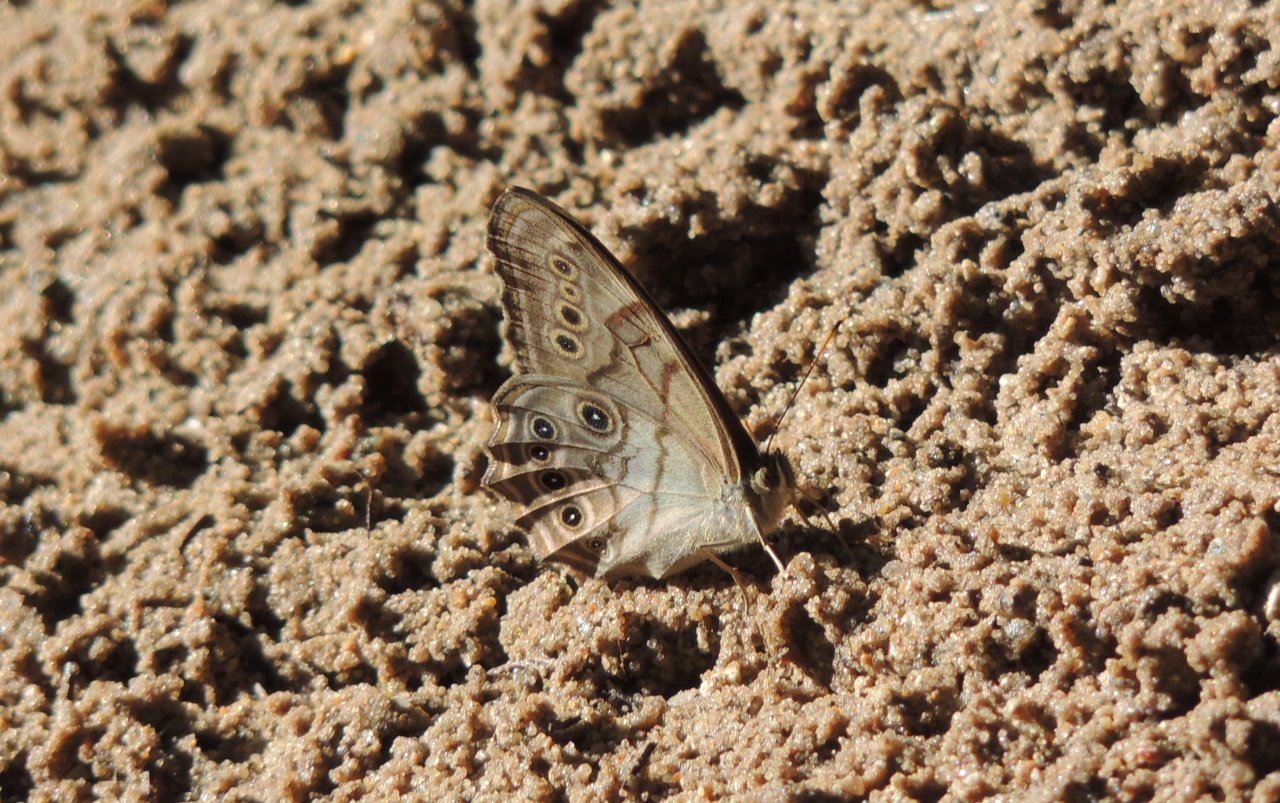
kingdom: Animalia
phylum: Arthropoda
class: Insecta
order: Lepidoptera
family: Nymphalidae
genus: Lethe
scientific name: Lethe anthedon
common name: Northern Pearly-Eye
